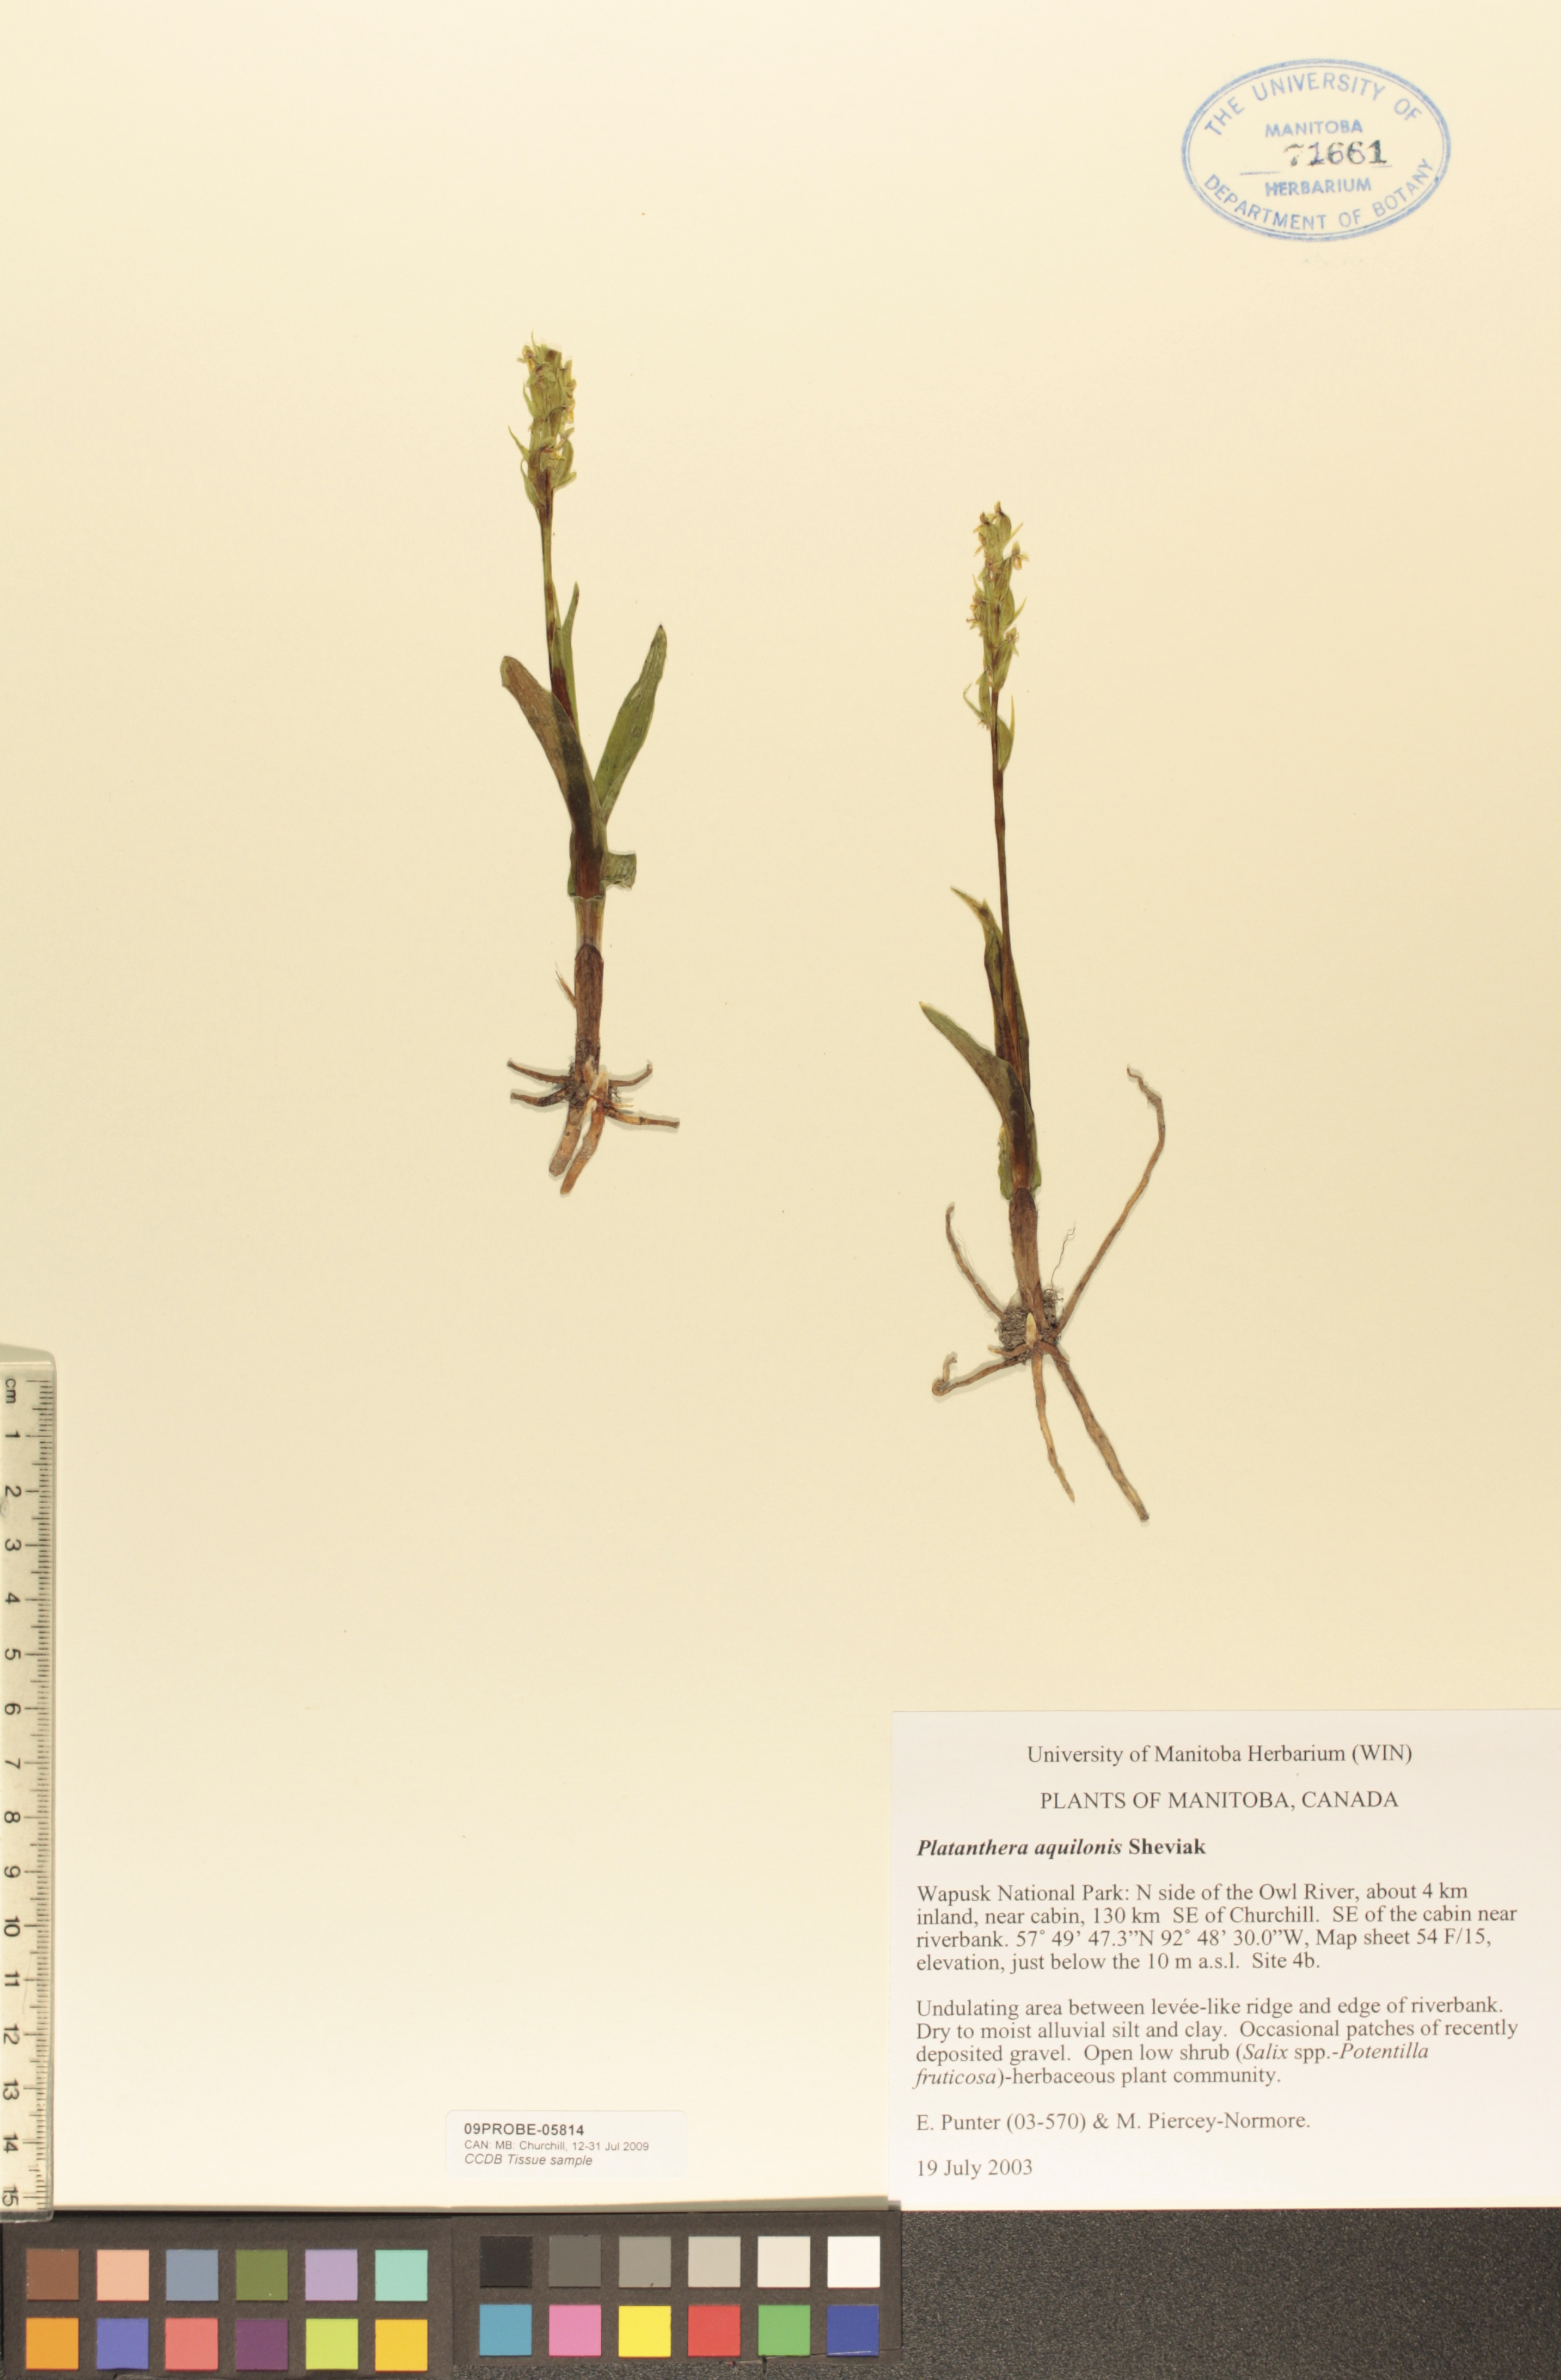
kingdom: Plantae
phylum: Tracheophyta
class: Liliopsida
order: Asparagales
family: Orchidaceae
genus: Platanthera
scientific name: Platanthera aquilonis
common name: Northern green orchid
